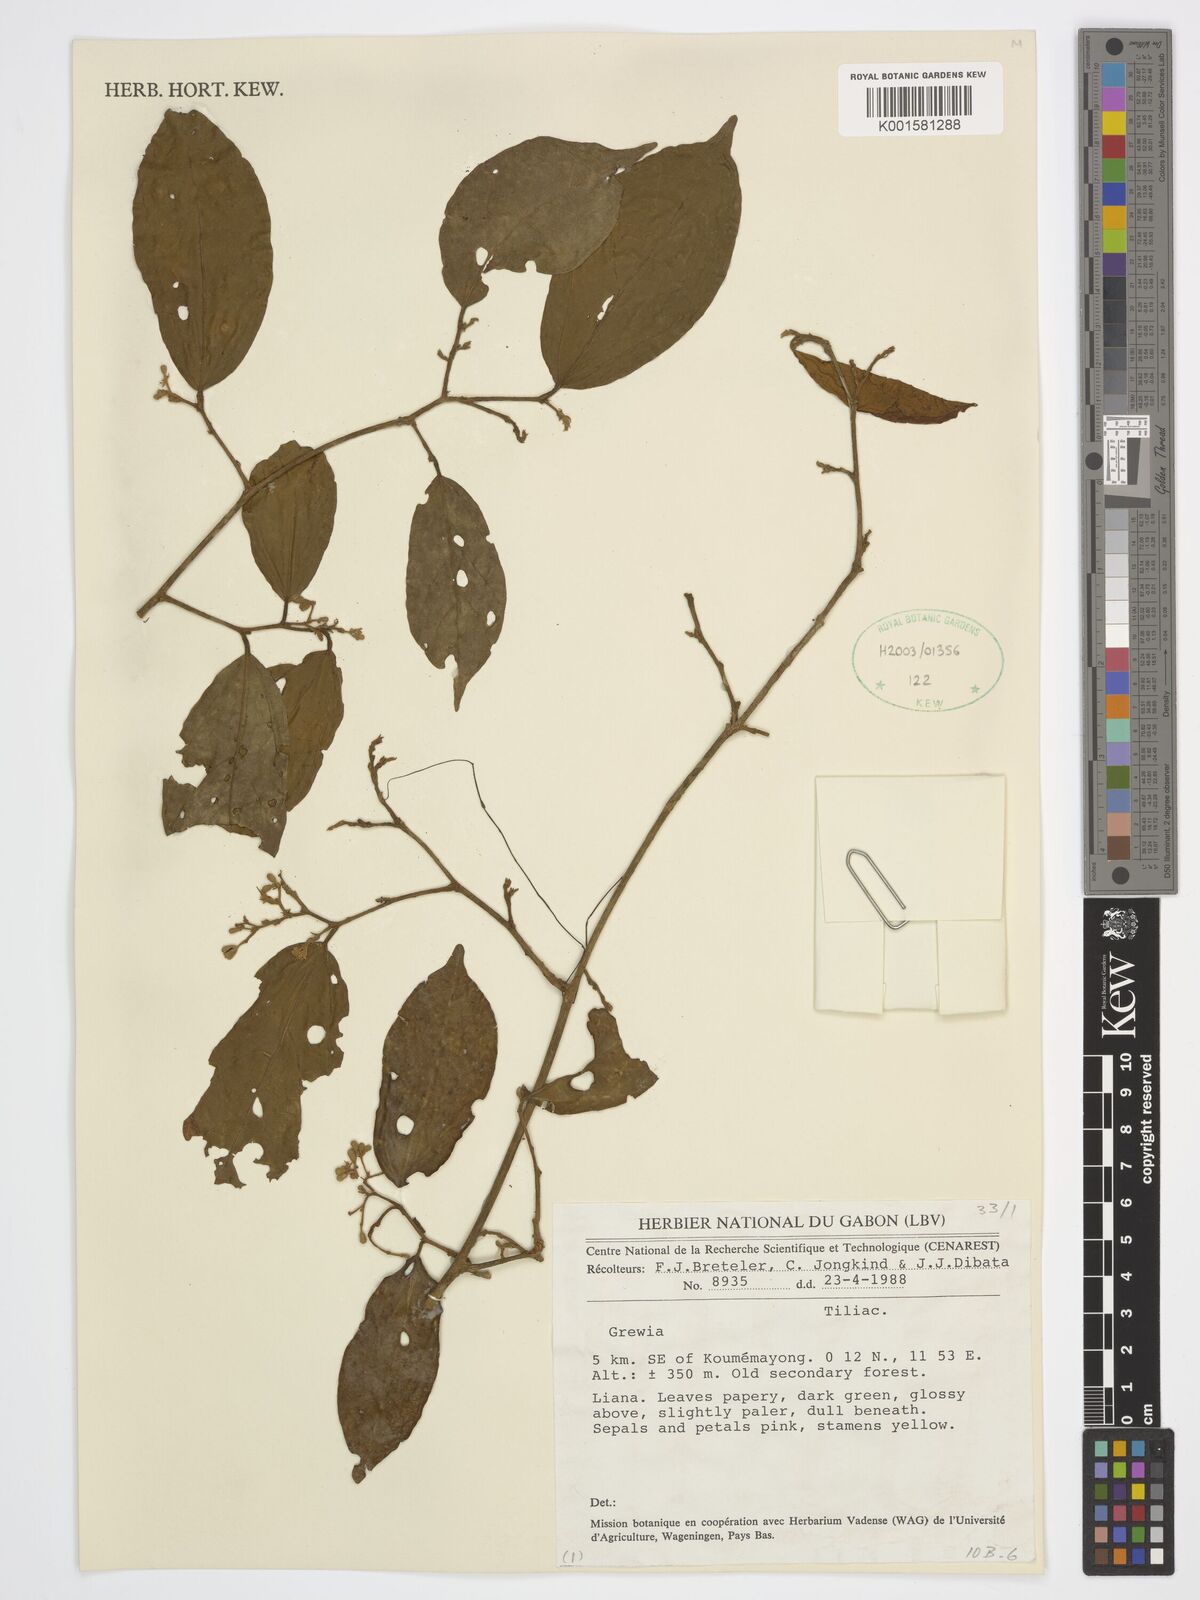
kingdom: Plantae
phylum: Tracheophyta
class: Magnoliopsida
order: Malvales
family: Malvaceae
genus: Grewia
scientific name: Grewia
